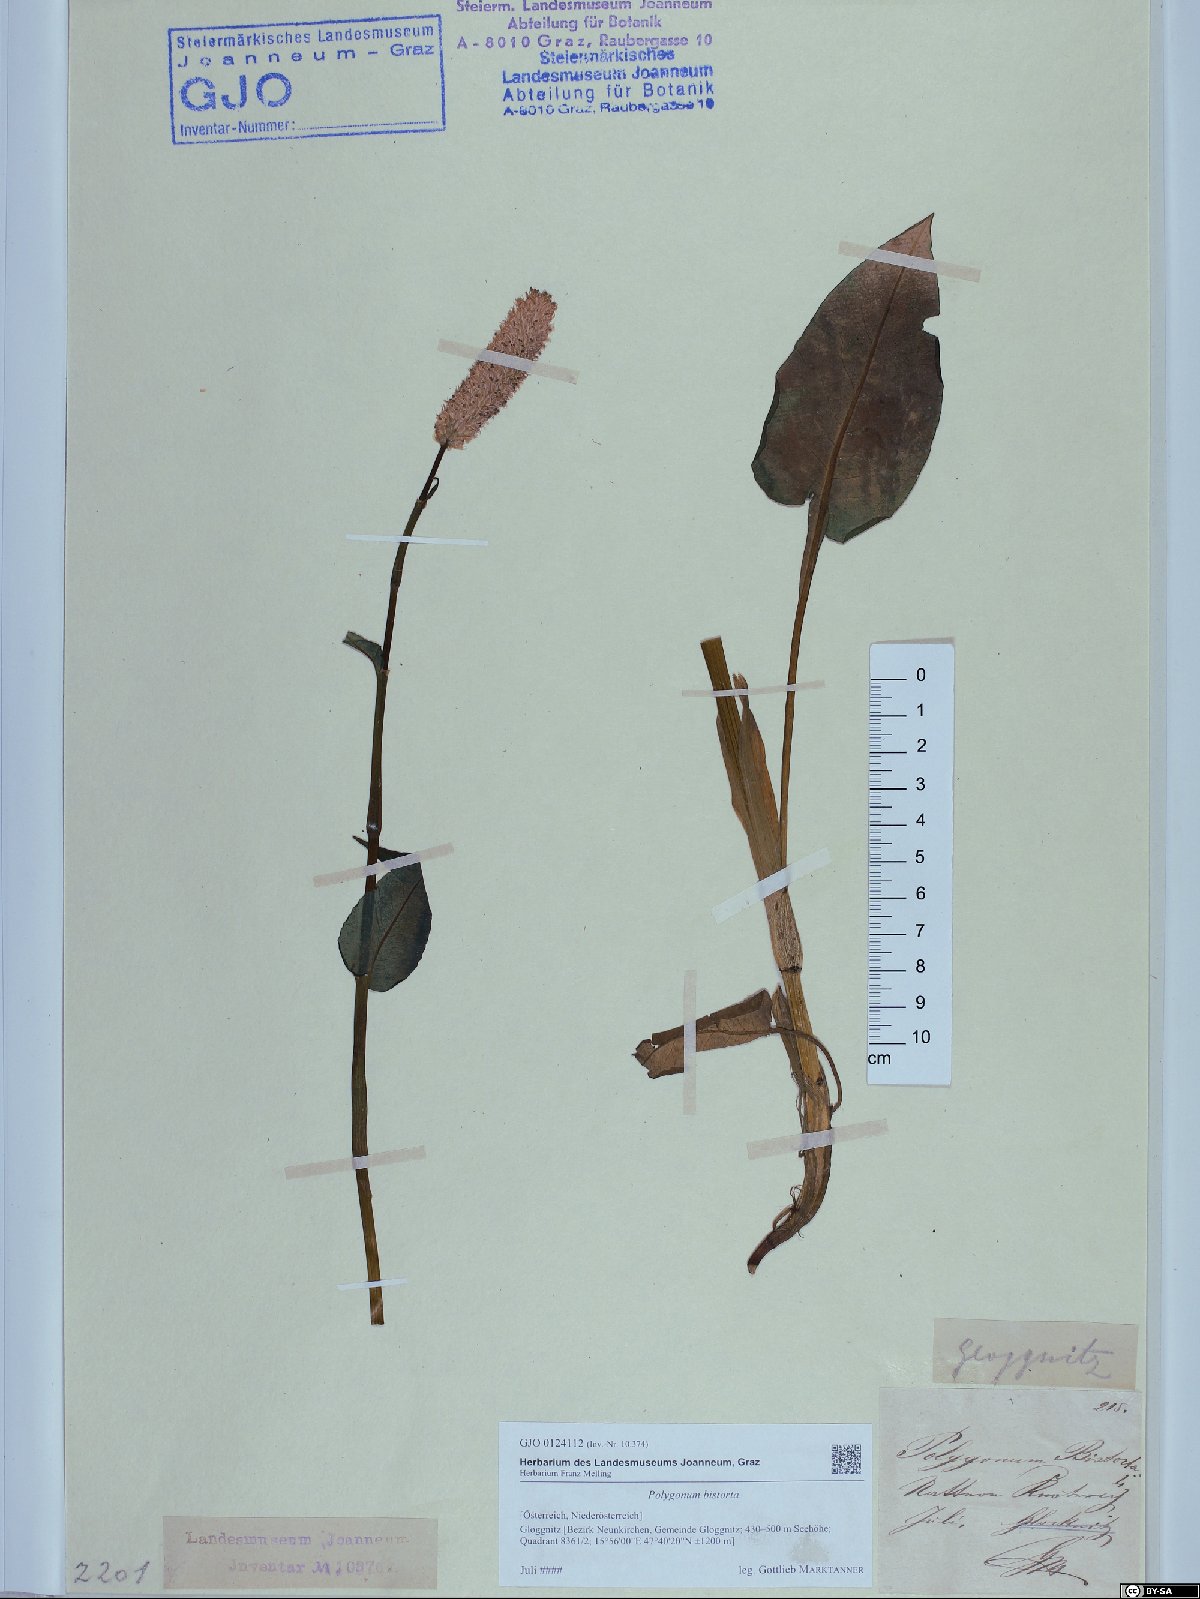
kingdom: Plantae
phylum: Tracheophyta
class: Magnoliopsida
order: Caryophyllales
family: Polygonaceae
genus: Bistorta
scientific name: Bistorta officinalis
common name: Common bistort
